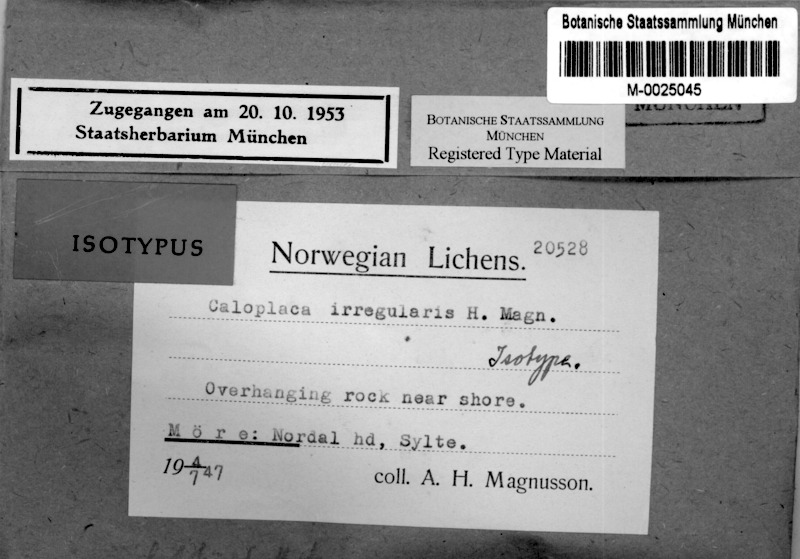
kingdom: Fungi
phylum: Ascomycota
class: Lecanoromycetes
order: Teloschistales
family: Teloschistaceae
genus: Flavoplaca
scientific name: Flavoplaca microthallina
